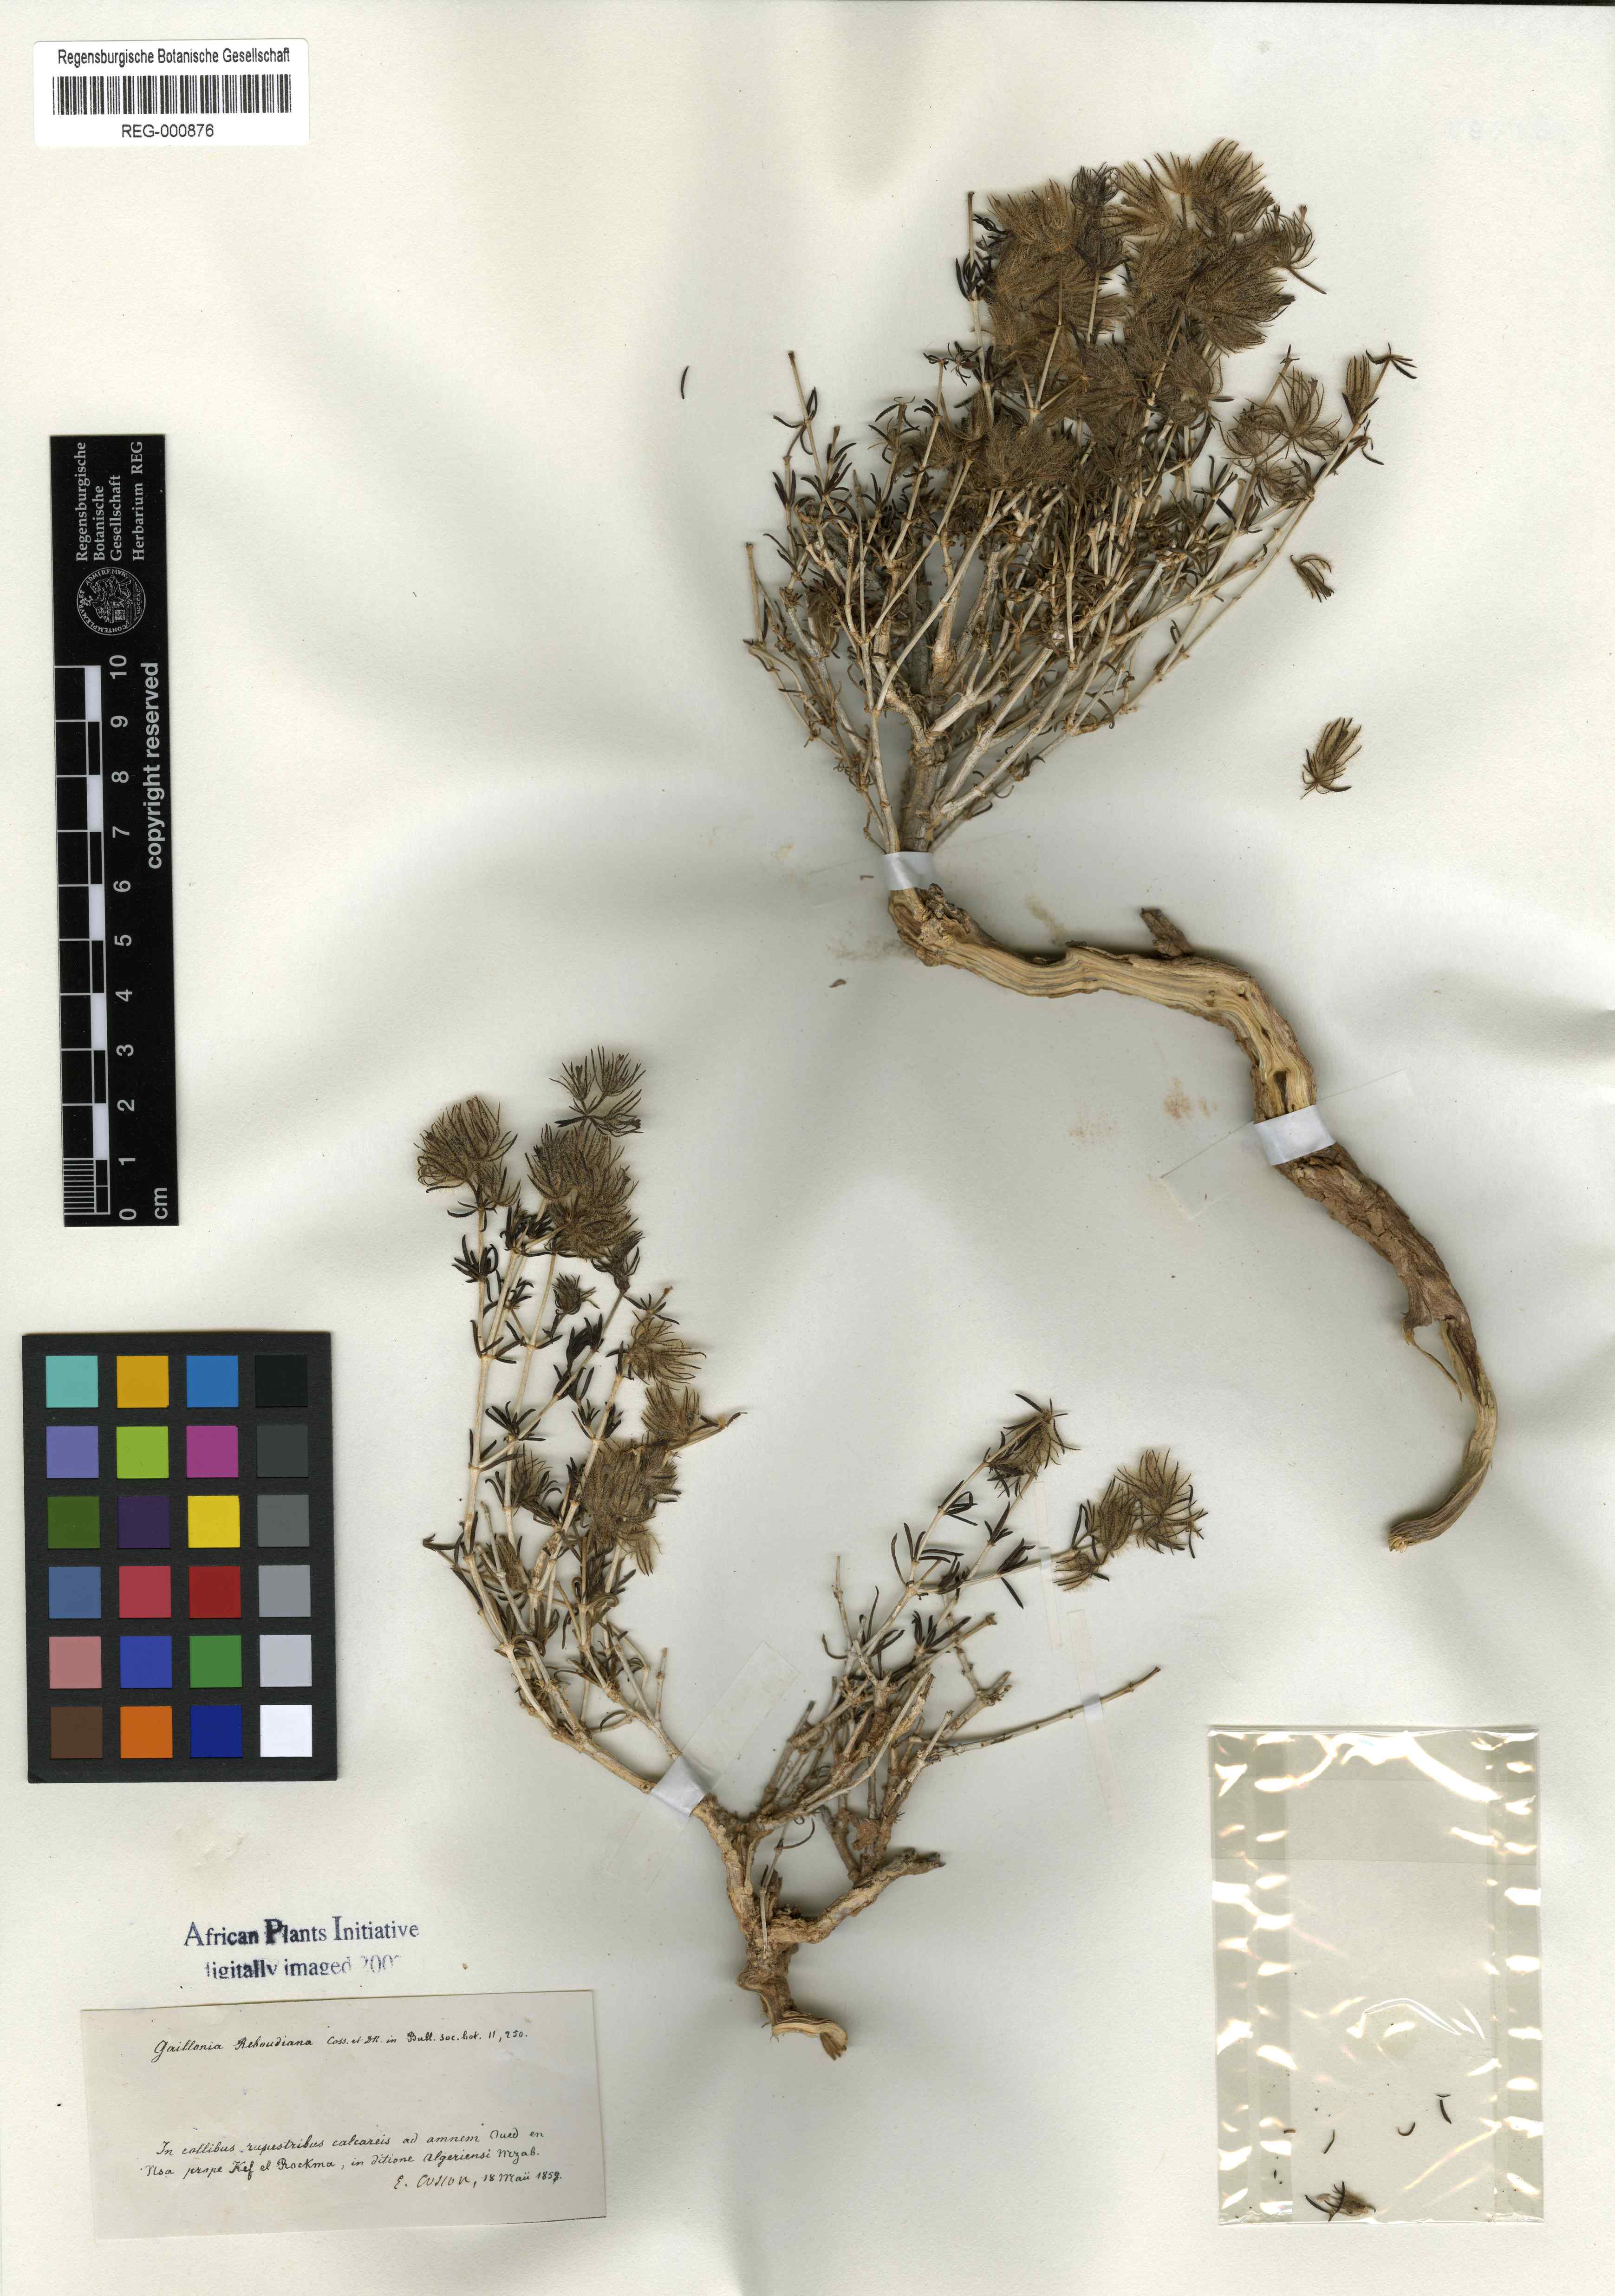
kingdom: Plantae
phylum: Tracheophyta
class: Magnoliopsida
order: Gentianales
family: Rubiaceae
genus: Plocama
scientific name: Plocama reboudiana
